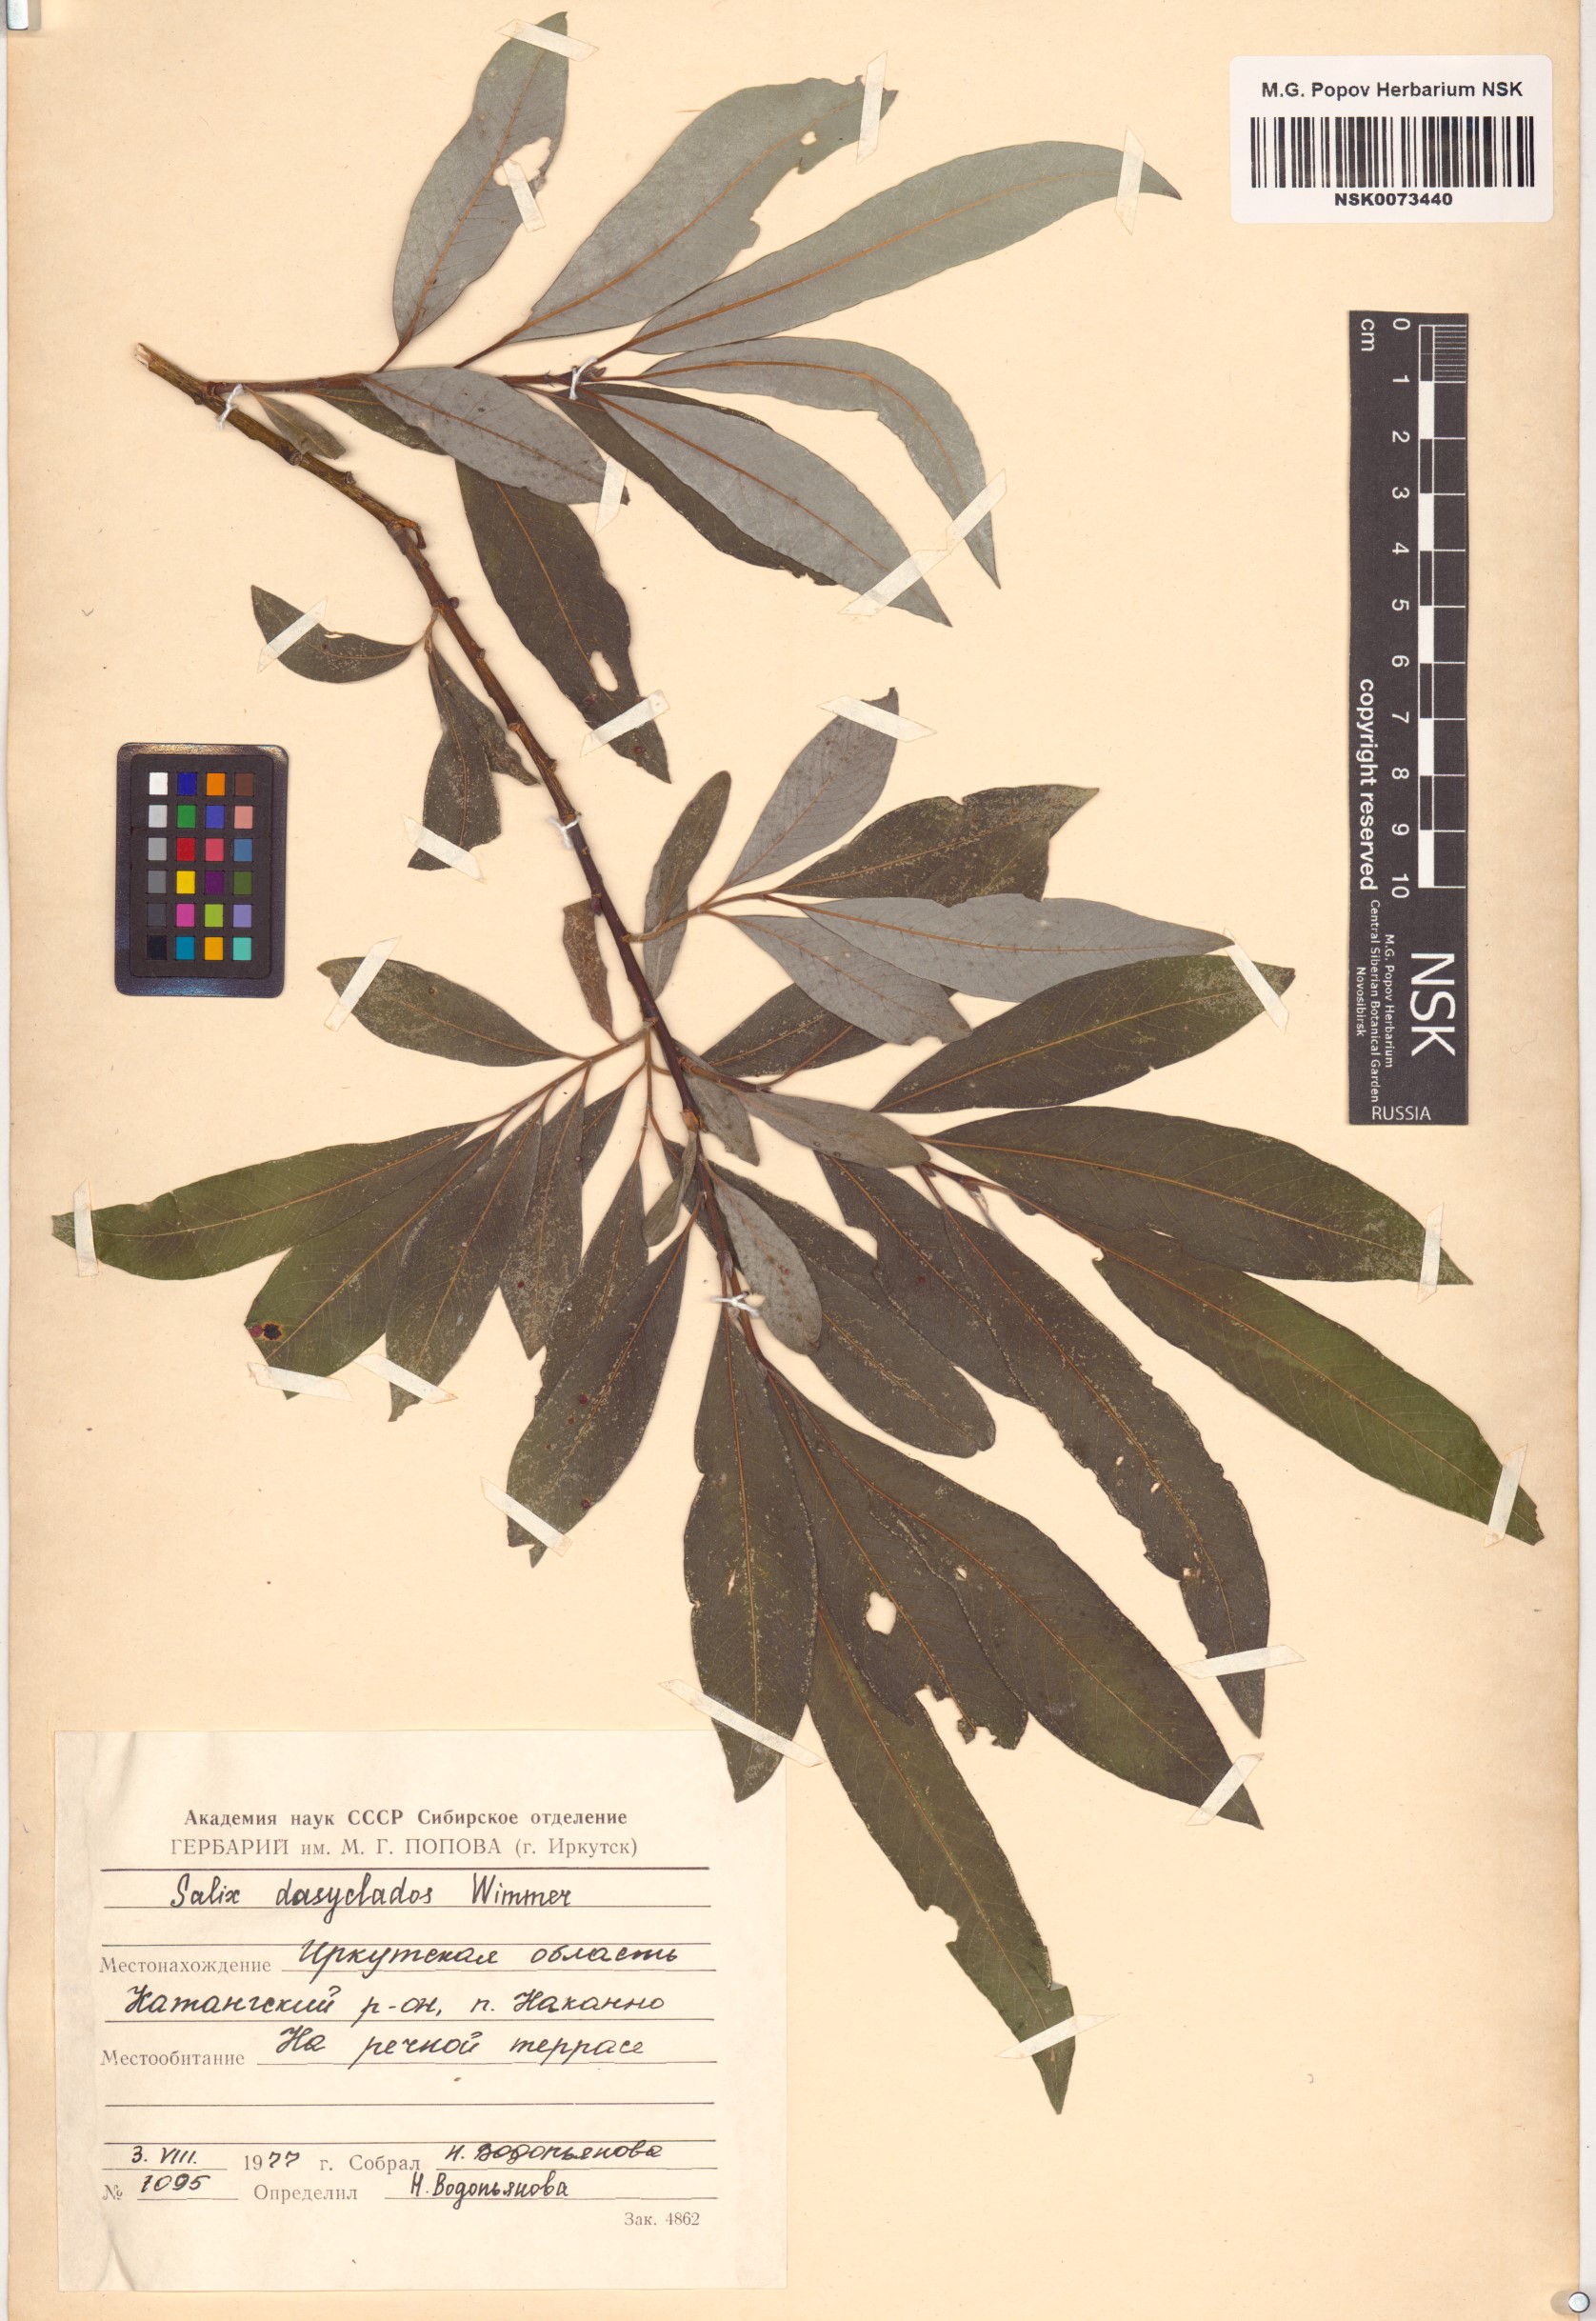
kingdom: Plantae
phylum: Tracheophyta
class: Magnoliopsida
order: Malpighiales
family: Salicaceae
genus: Salix
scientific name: Salix gmelinii
